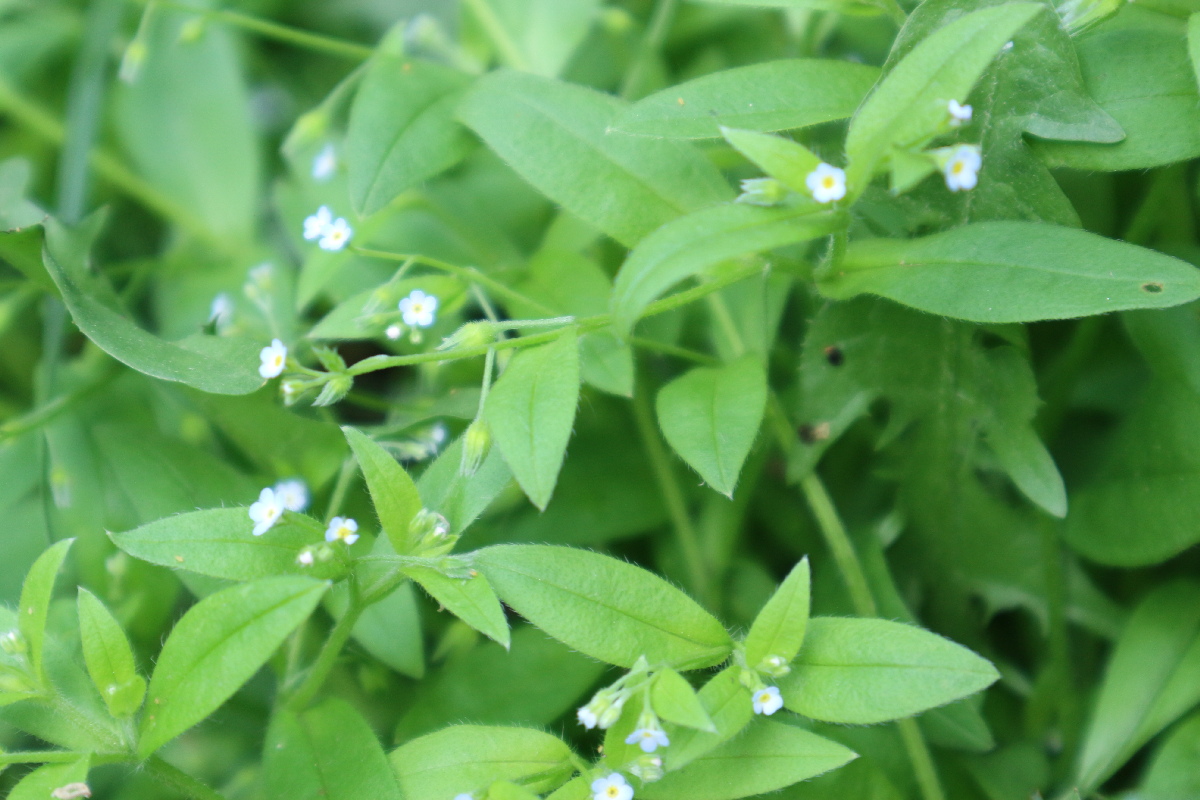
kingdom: Plantae
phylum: Tracheophyta
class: Magnoliopsida
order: Boraginales
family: Boraginaceae
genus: Myosotis
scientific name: Myosotis sparsiflora
